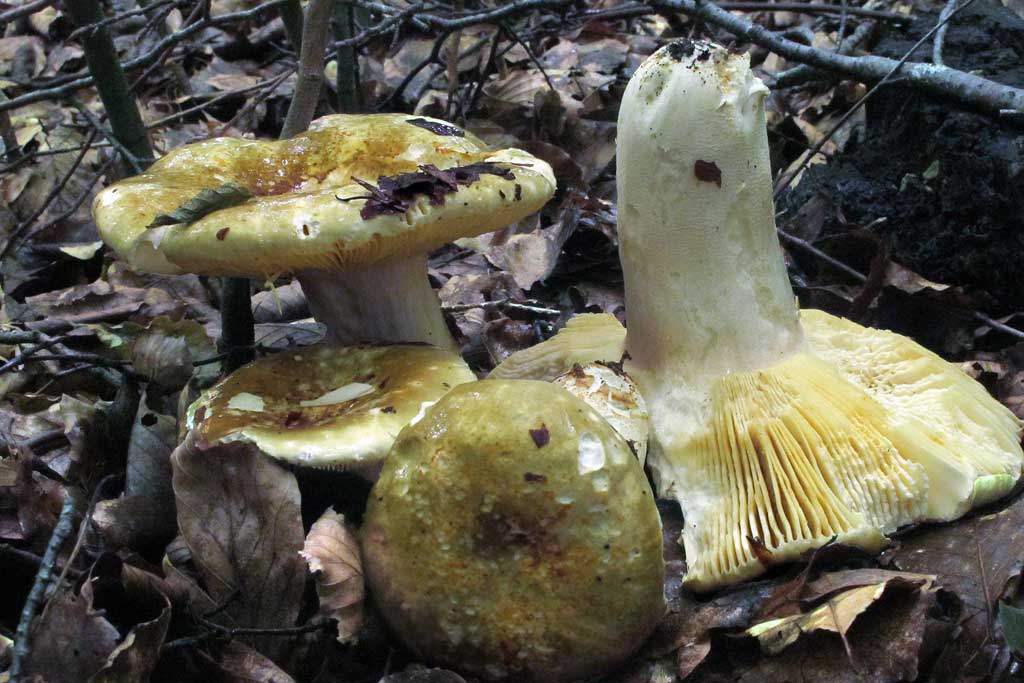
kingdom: Fungi
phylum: Basidiomycota
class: Agaricomycetes
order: Russulales
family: Russulaceae
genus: Russula
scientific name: Russula olivacea
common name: stor skørhat
